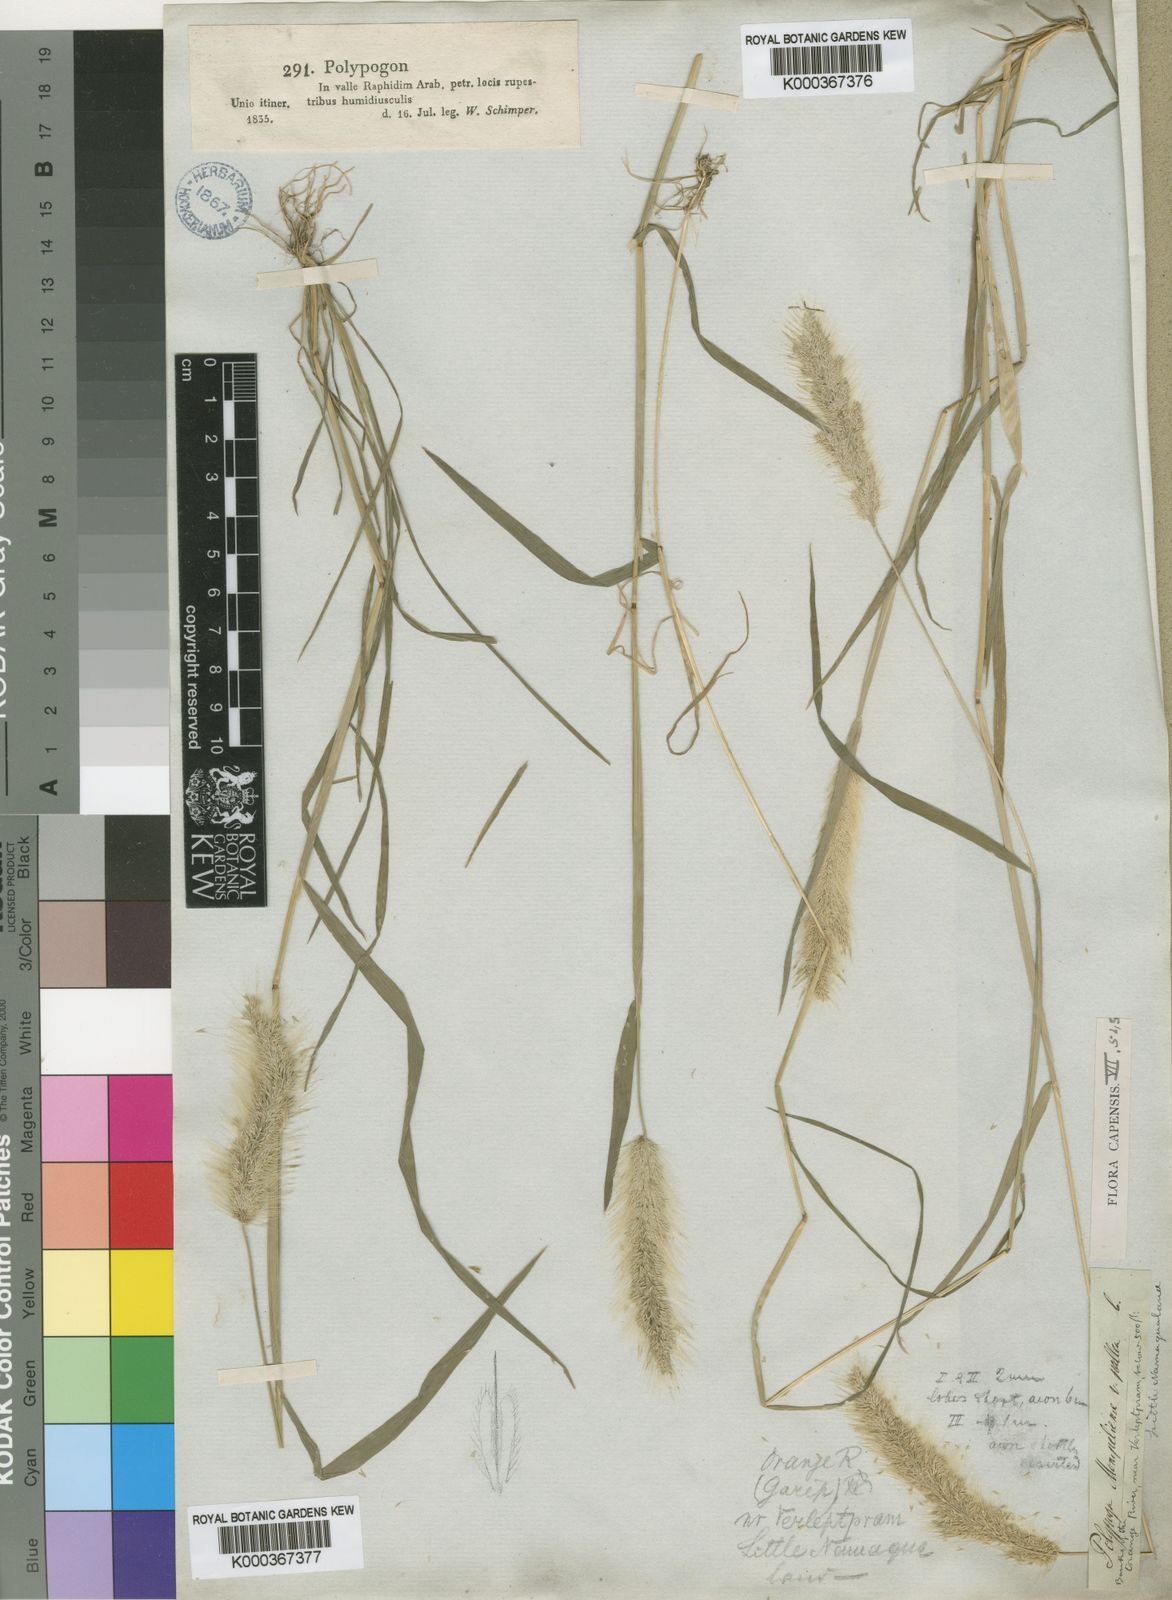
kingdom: Plantae
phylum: Tracheophyta
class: Liliopsida
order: Poales
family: Poaceae
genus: Polypogon
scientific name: Polypogon monspeliensis
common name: Annual rabbitsfoot grass
